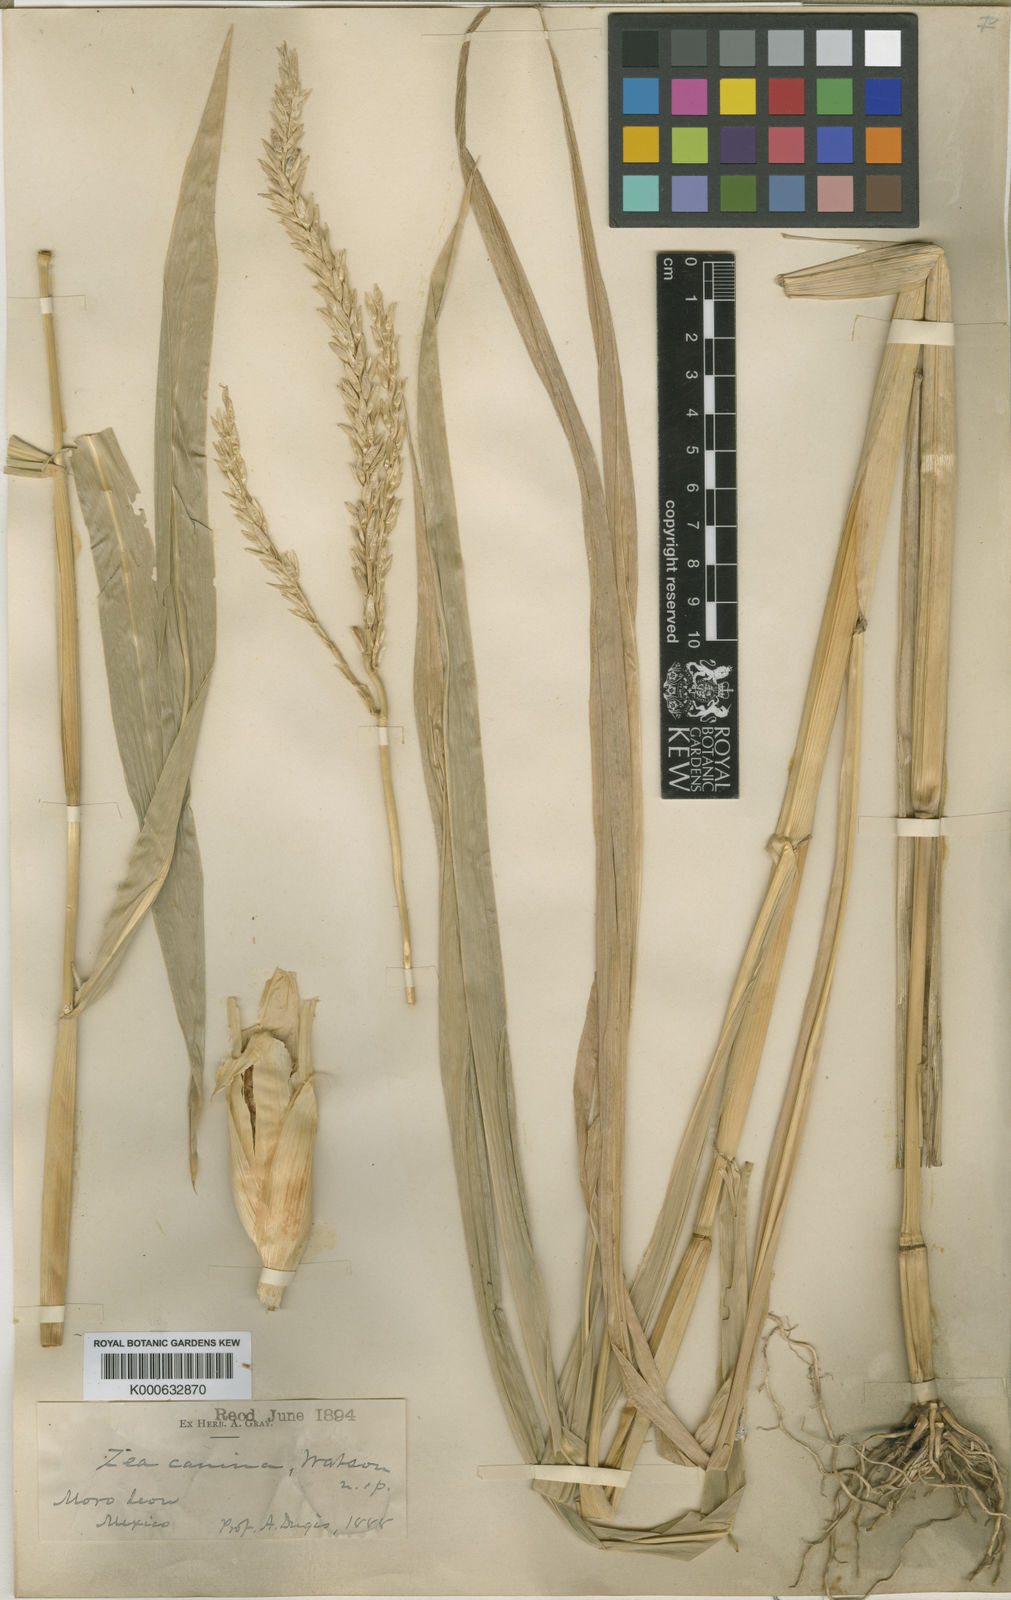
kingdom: Plantae
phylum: Tracheophyta
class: Liliopsida
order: Poales
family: Poaceae
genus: Zea
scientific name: Zea mays
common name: Maize
